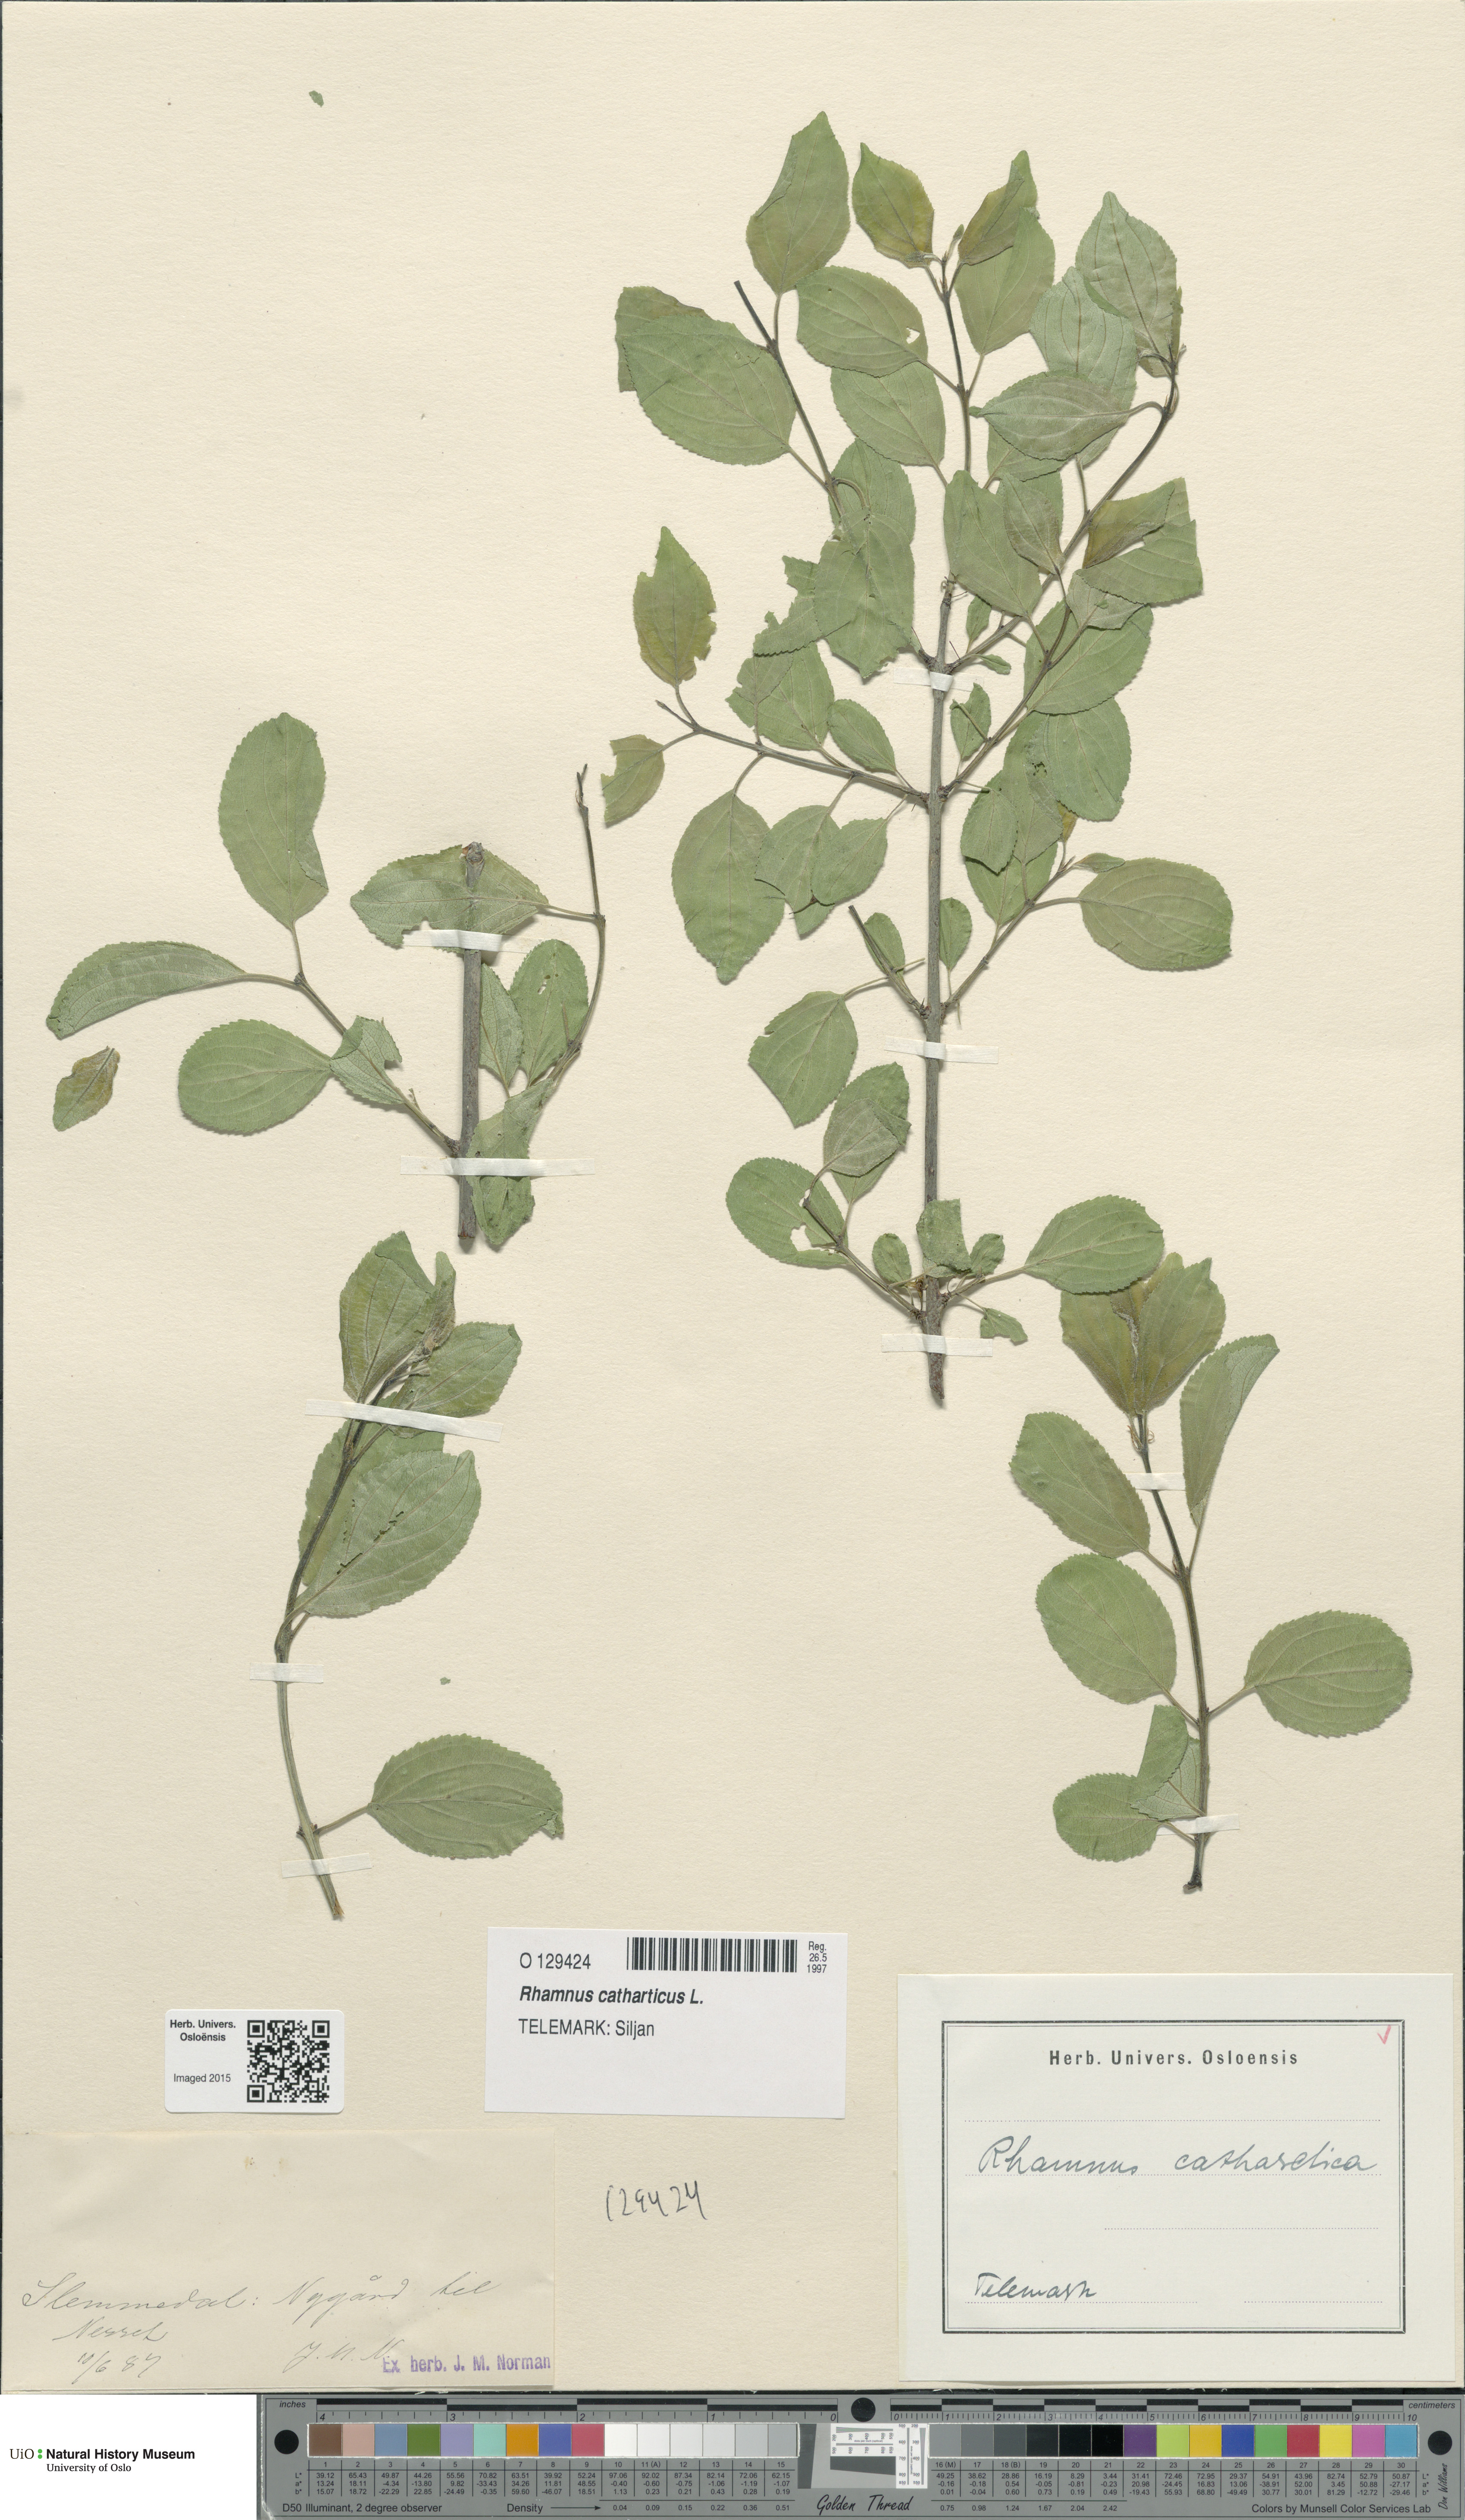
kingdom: Plantae
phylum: Tracheophyta
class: Magnoliopsida
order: Rosales
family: Rhamnaceae
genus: Rhamnus
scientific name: Rhamnus cathartica
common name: Common buckthorn
